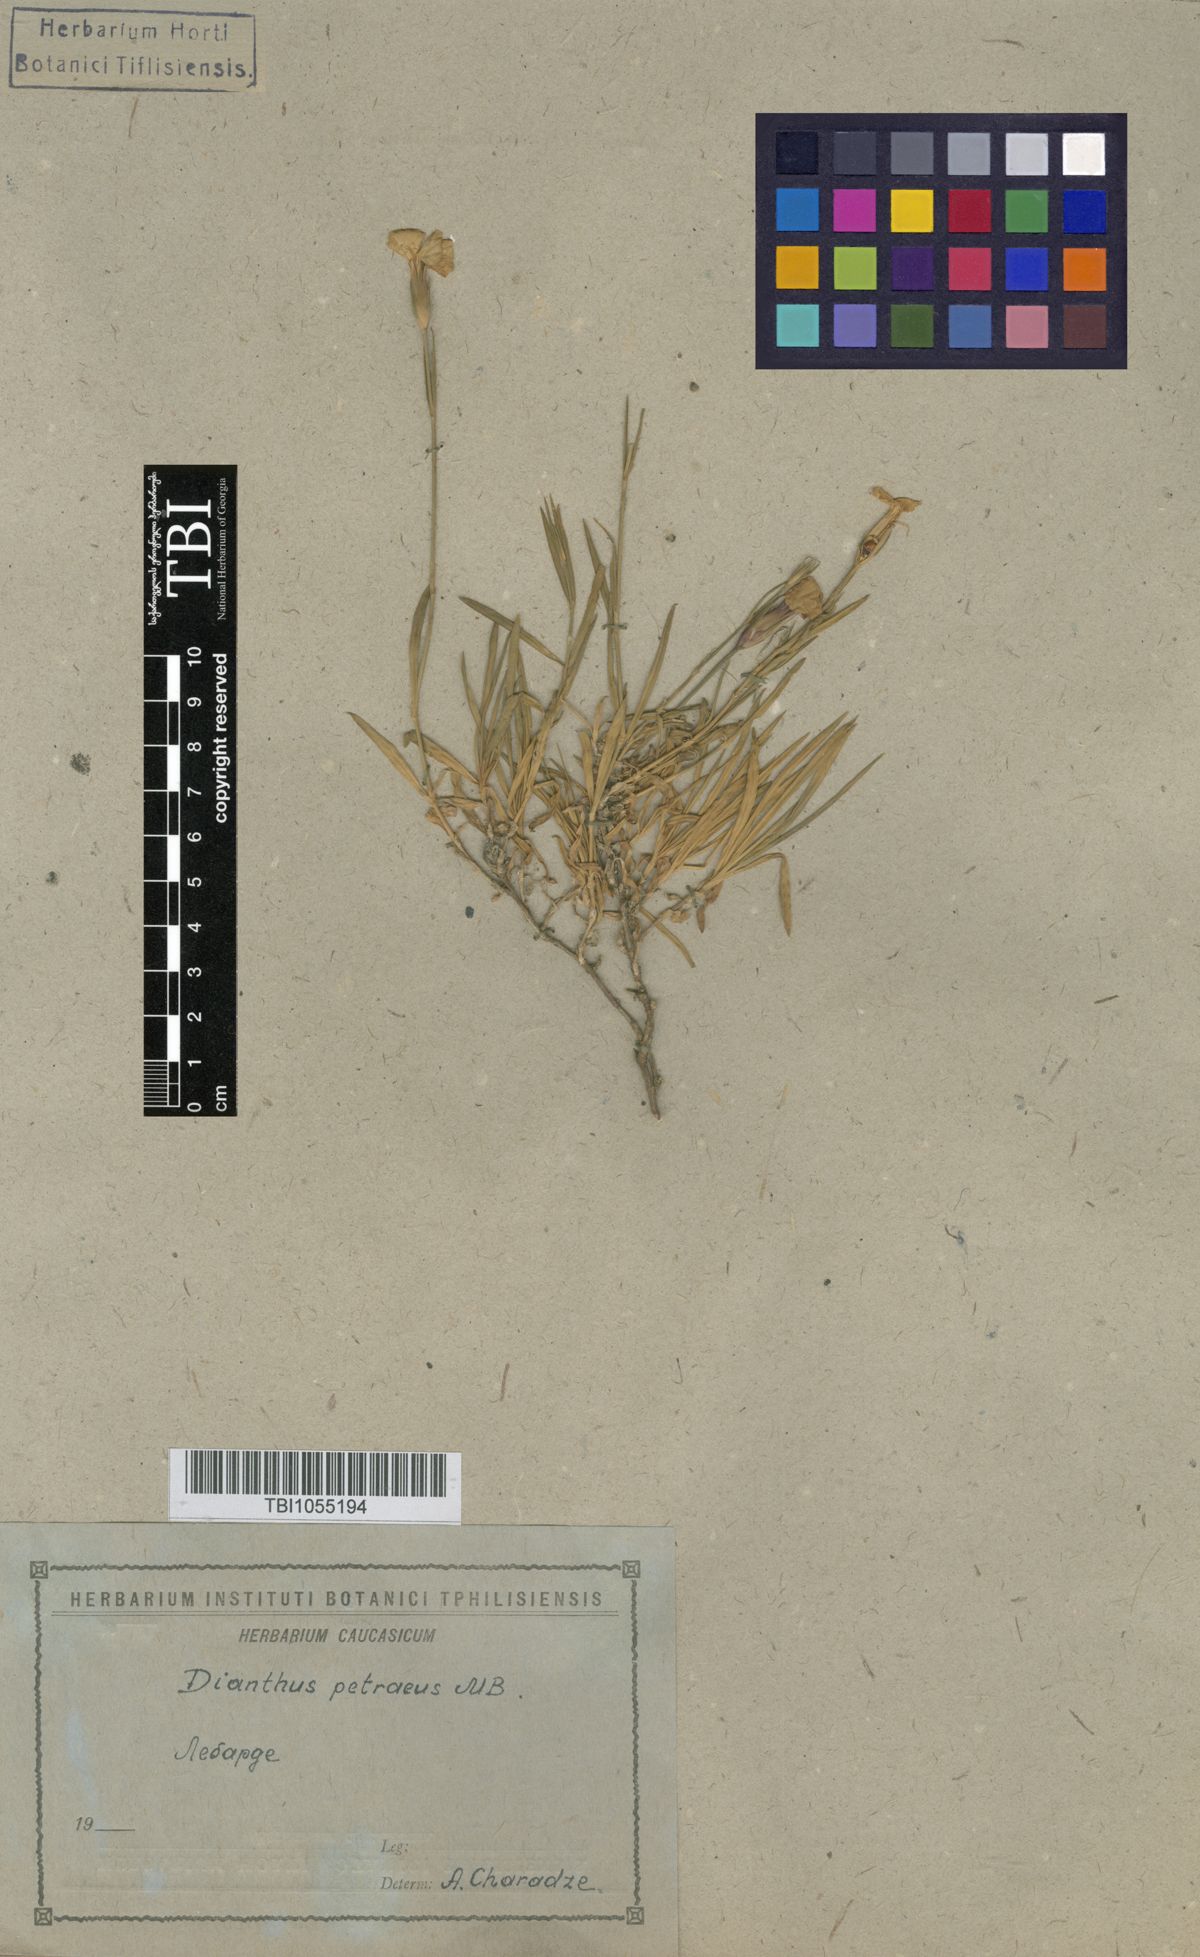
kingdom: Plantae
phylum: Tracheophyta
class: Magnoliopsida
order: Caryophyllales
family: Caryophyllaceae
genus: Dianthus
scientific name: Dianthus cretaceus
